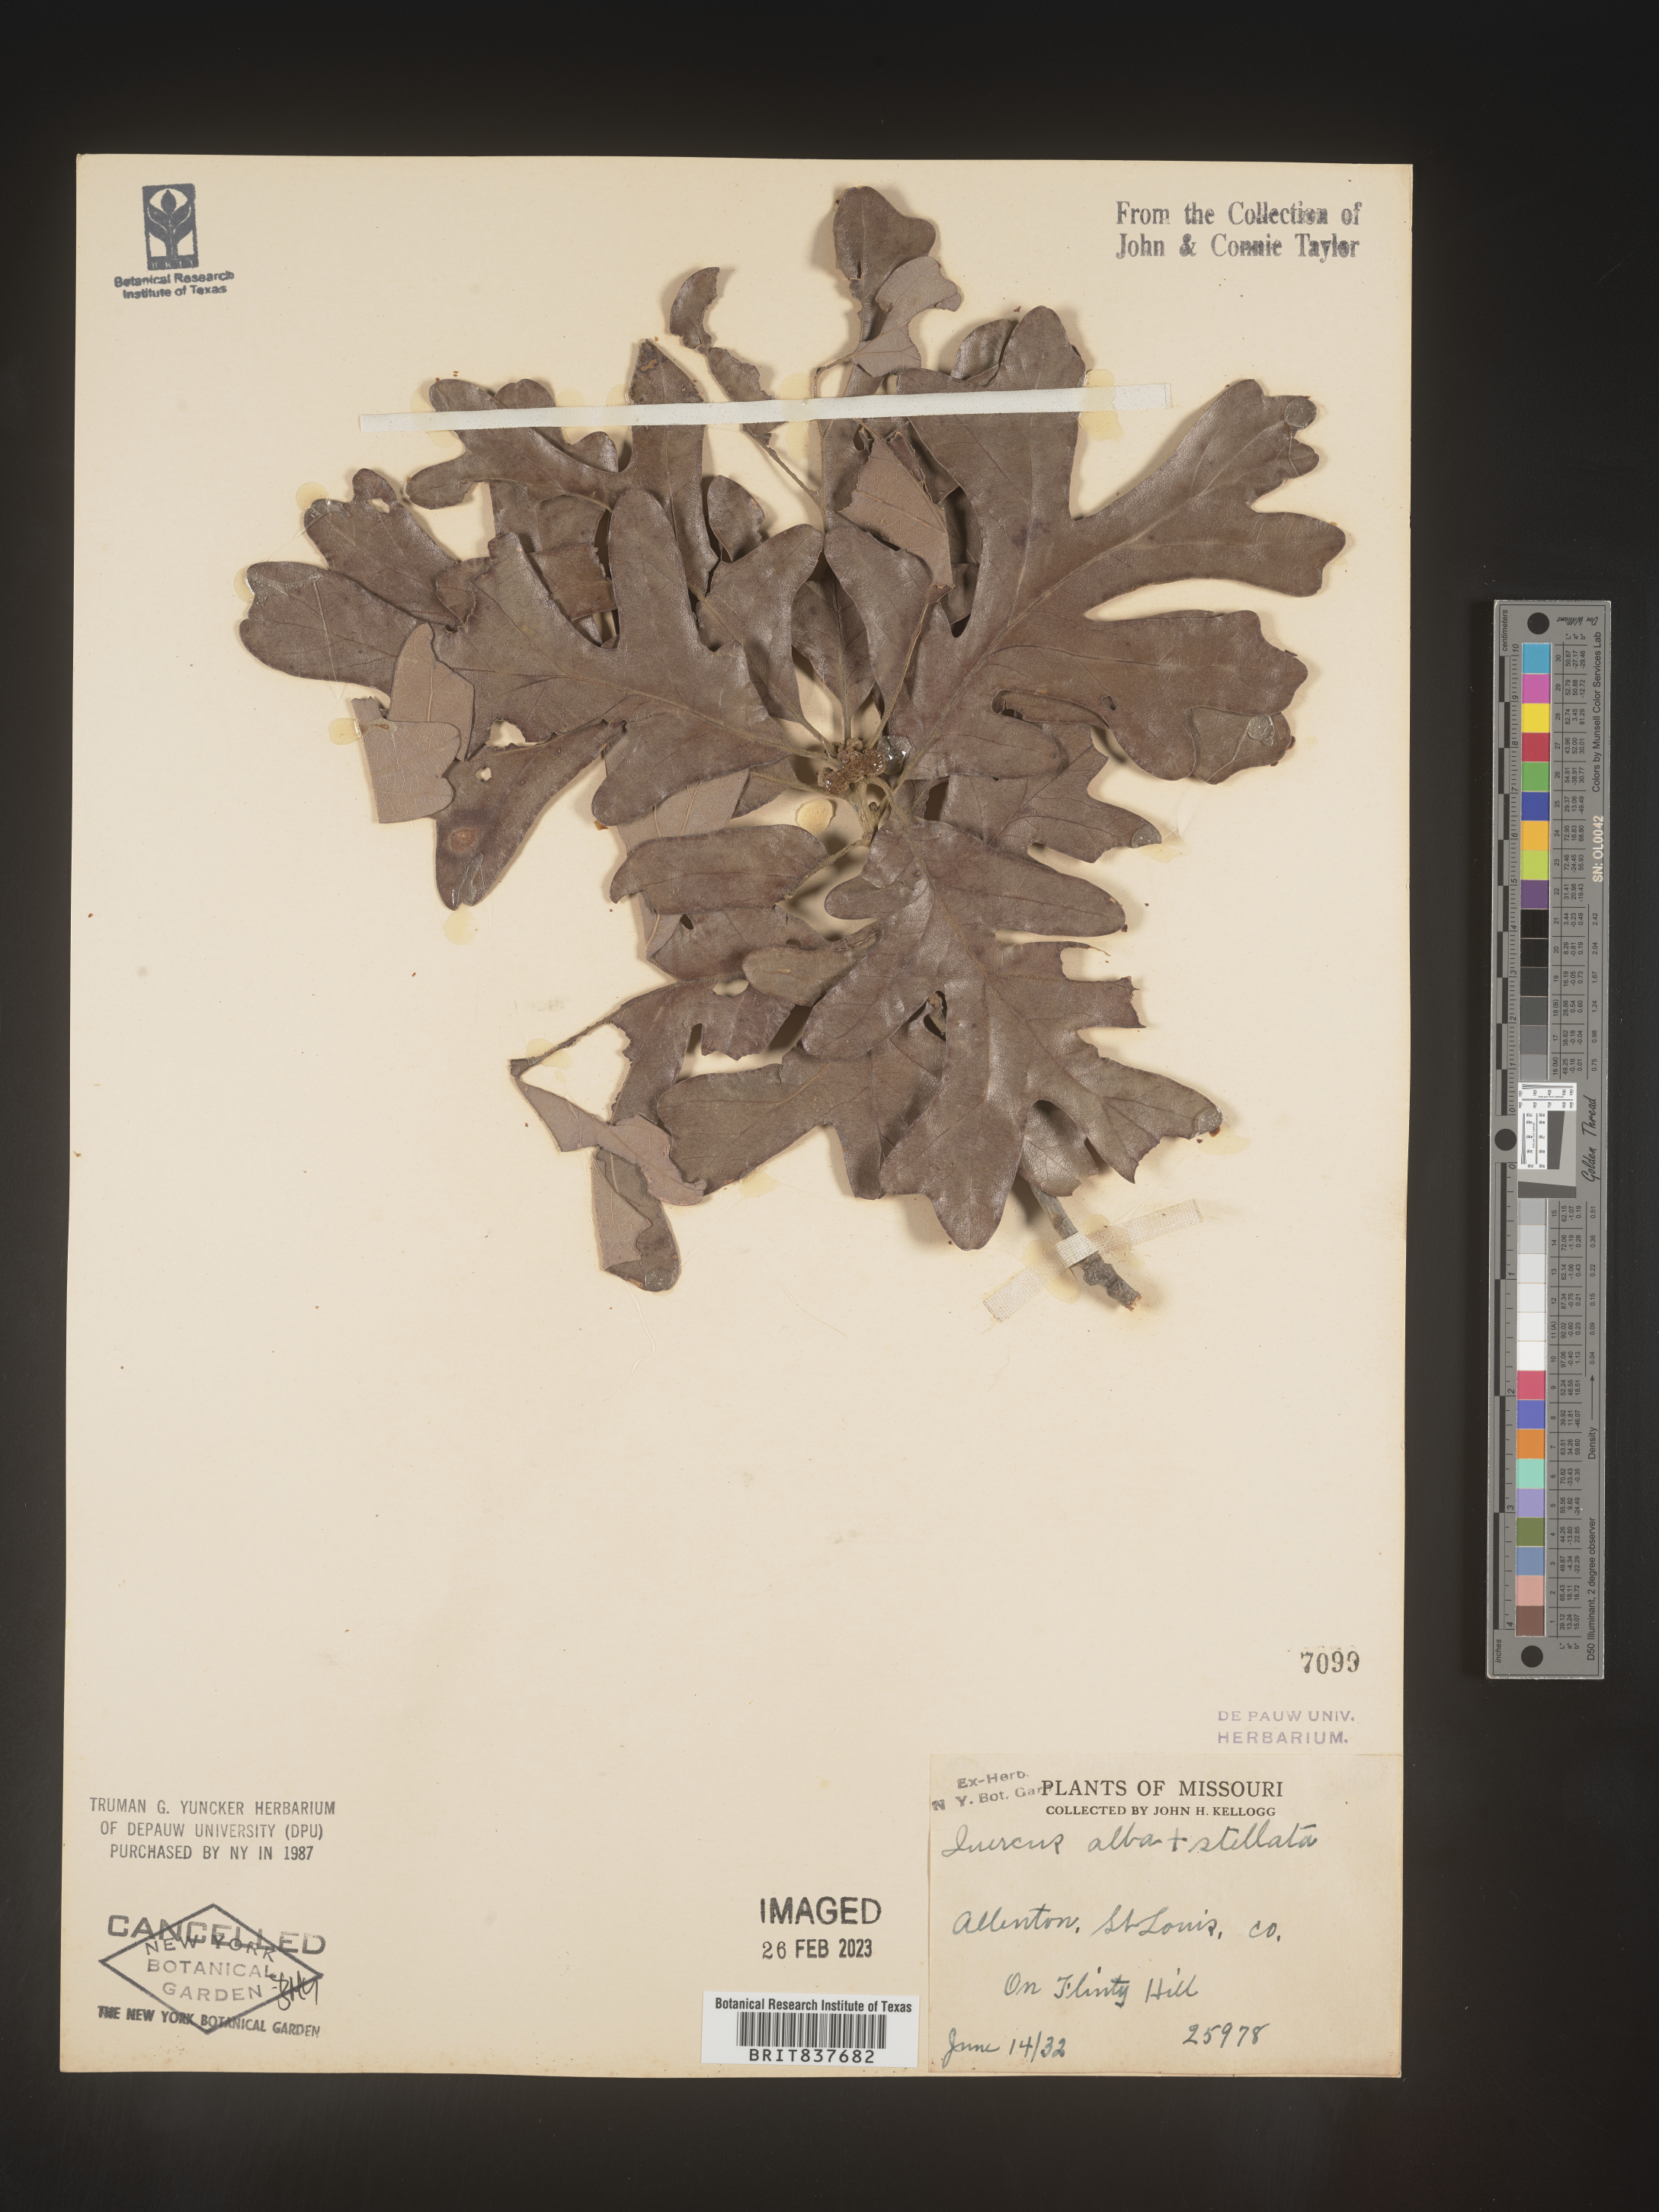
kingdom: Plantae
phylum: Tracheophyta
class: Magnoliopsida
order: Fagales
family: Fagaceae
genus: Quercus
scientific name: Quercus alba
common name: White oak
